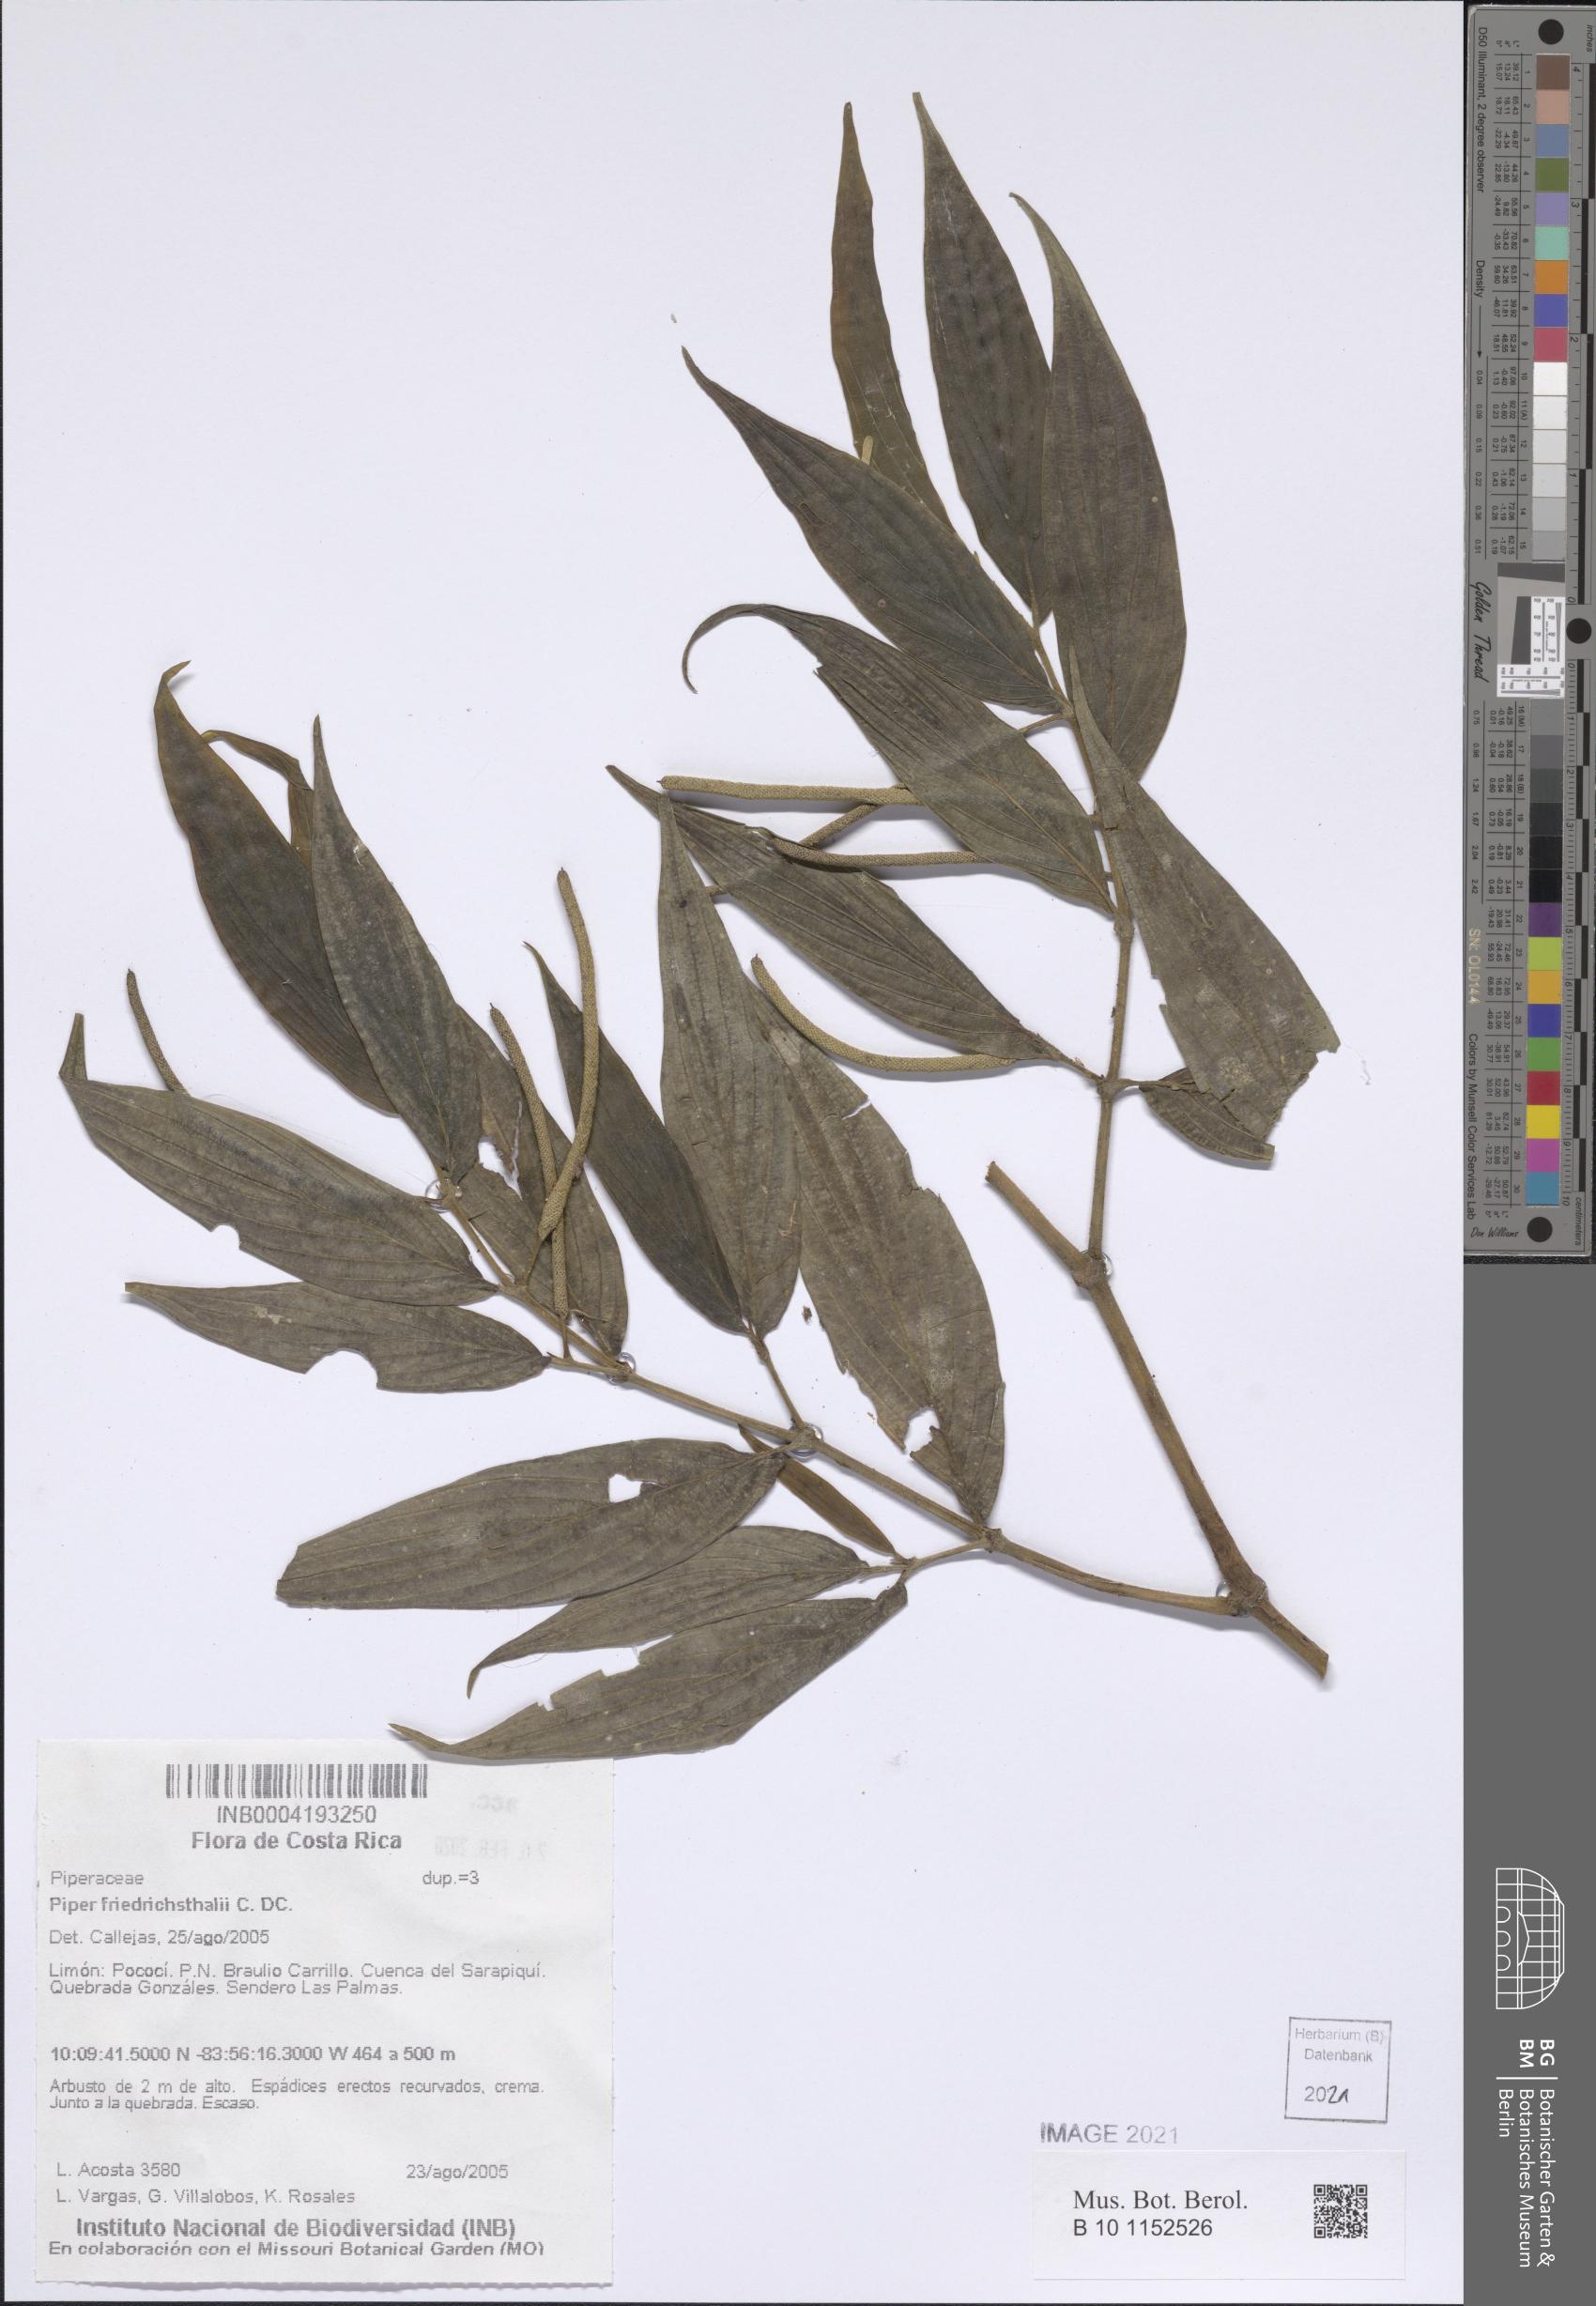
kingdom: Plantae
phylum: Tracheophyta
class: Magnoliopsida
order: Piperales
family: Piperaceae
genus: Piper
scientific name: Piper friedrichsthalii
